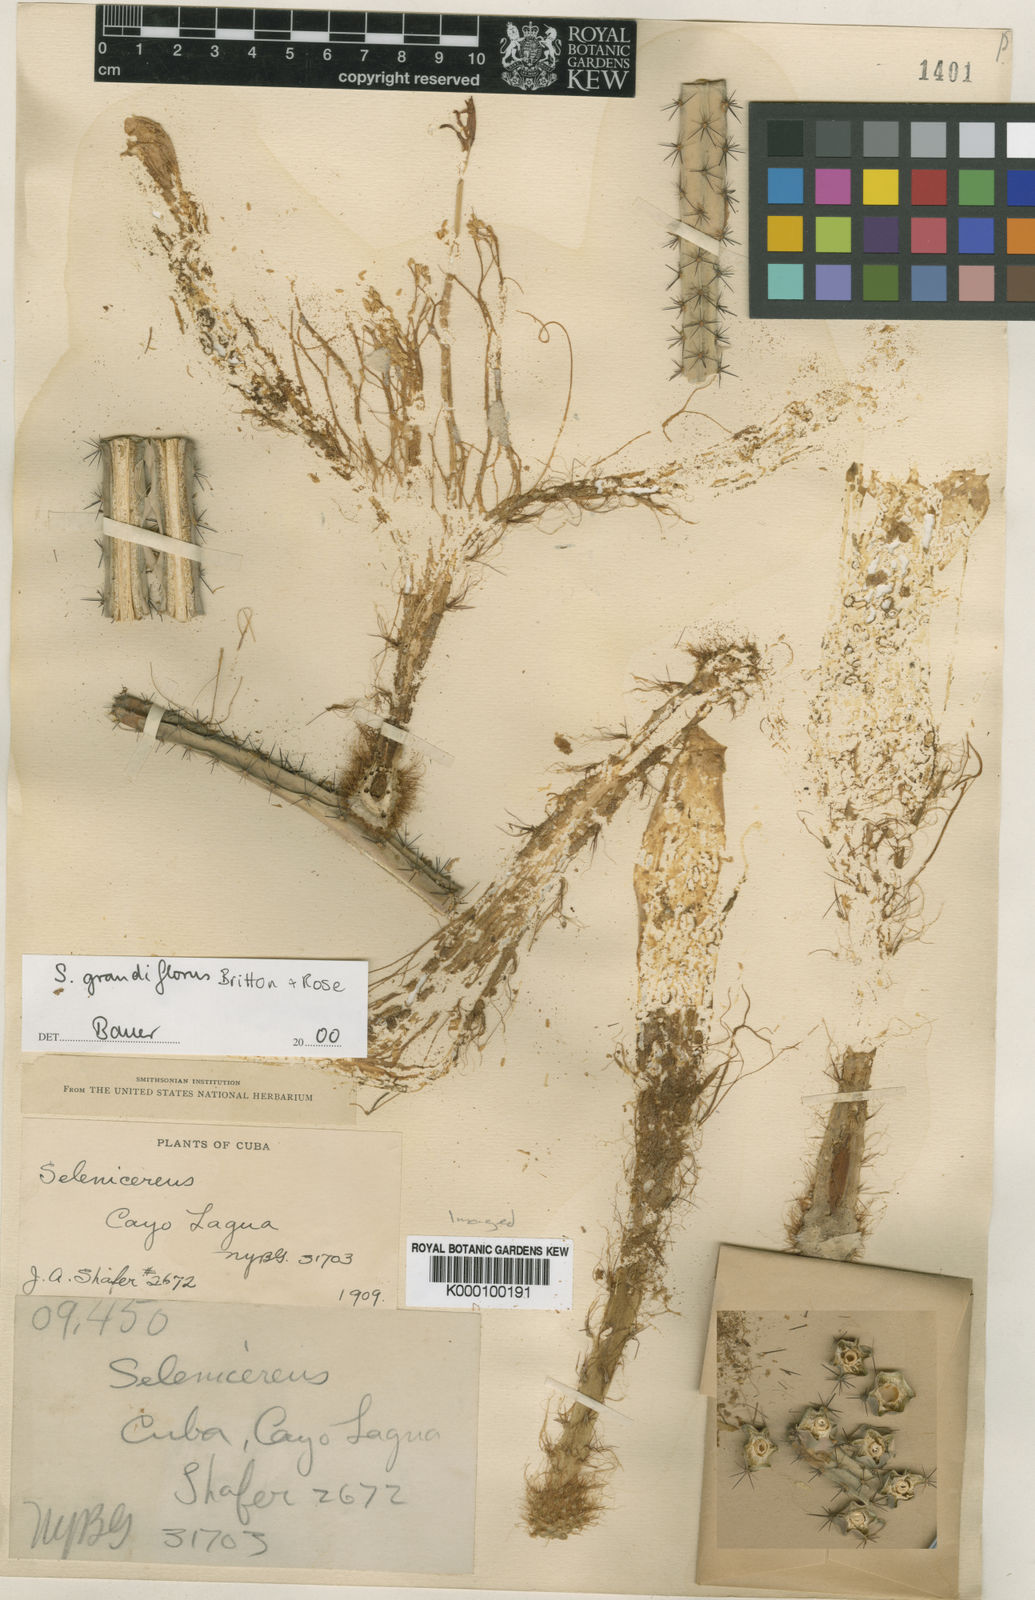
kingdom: Plantae
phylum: Tracheophyta
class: Magnoliopsida
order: Caryophyllales
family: Cactaceae
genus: Selenicereus
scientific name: Selenicereus grandiflorus
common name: Queen of the night
